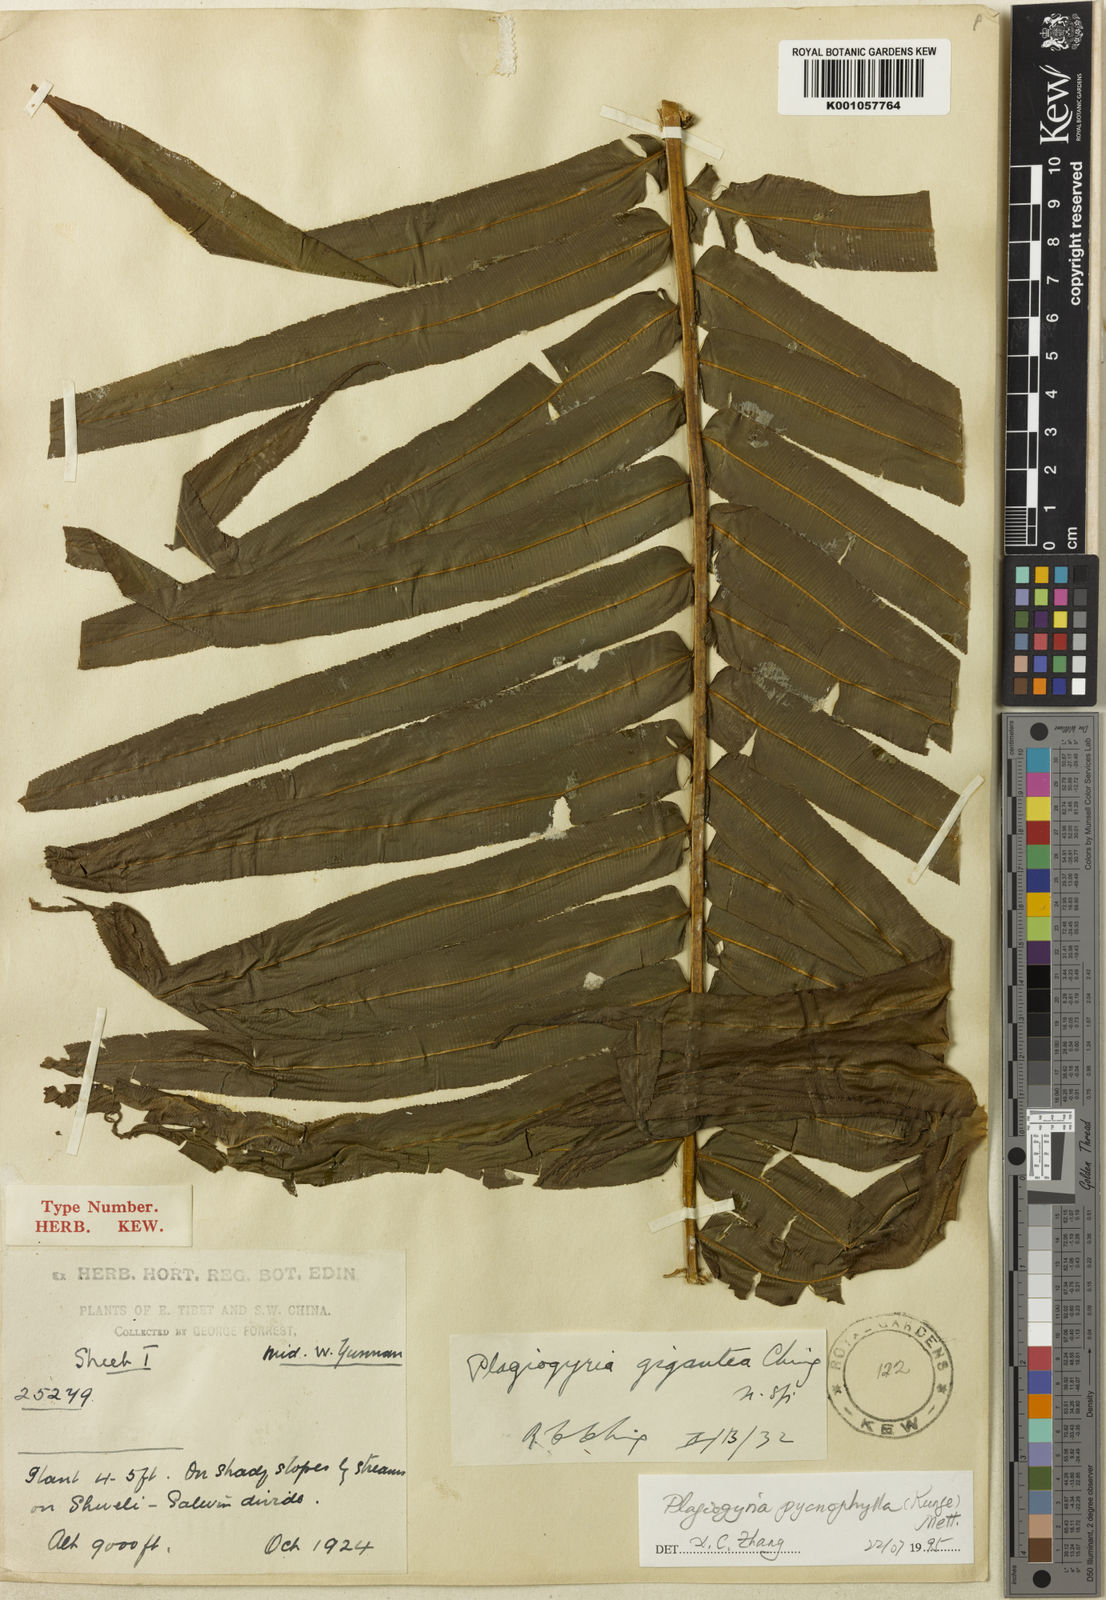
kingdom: Plantae
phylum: Tracheophyta
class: Polypodiopsida
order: Cyatheales
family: Plagiogyriaceae
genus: Plagiogyria
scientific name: Plagiogyria pycnophylla
